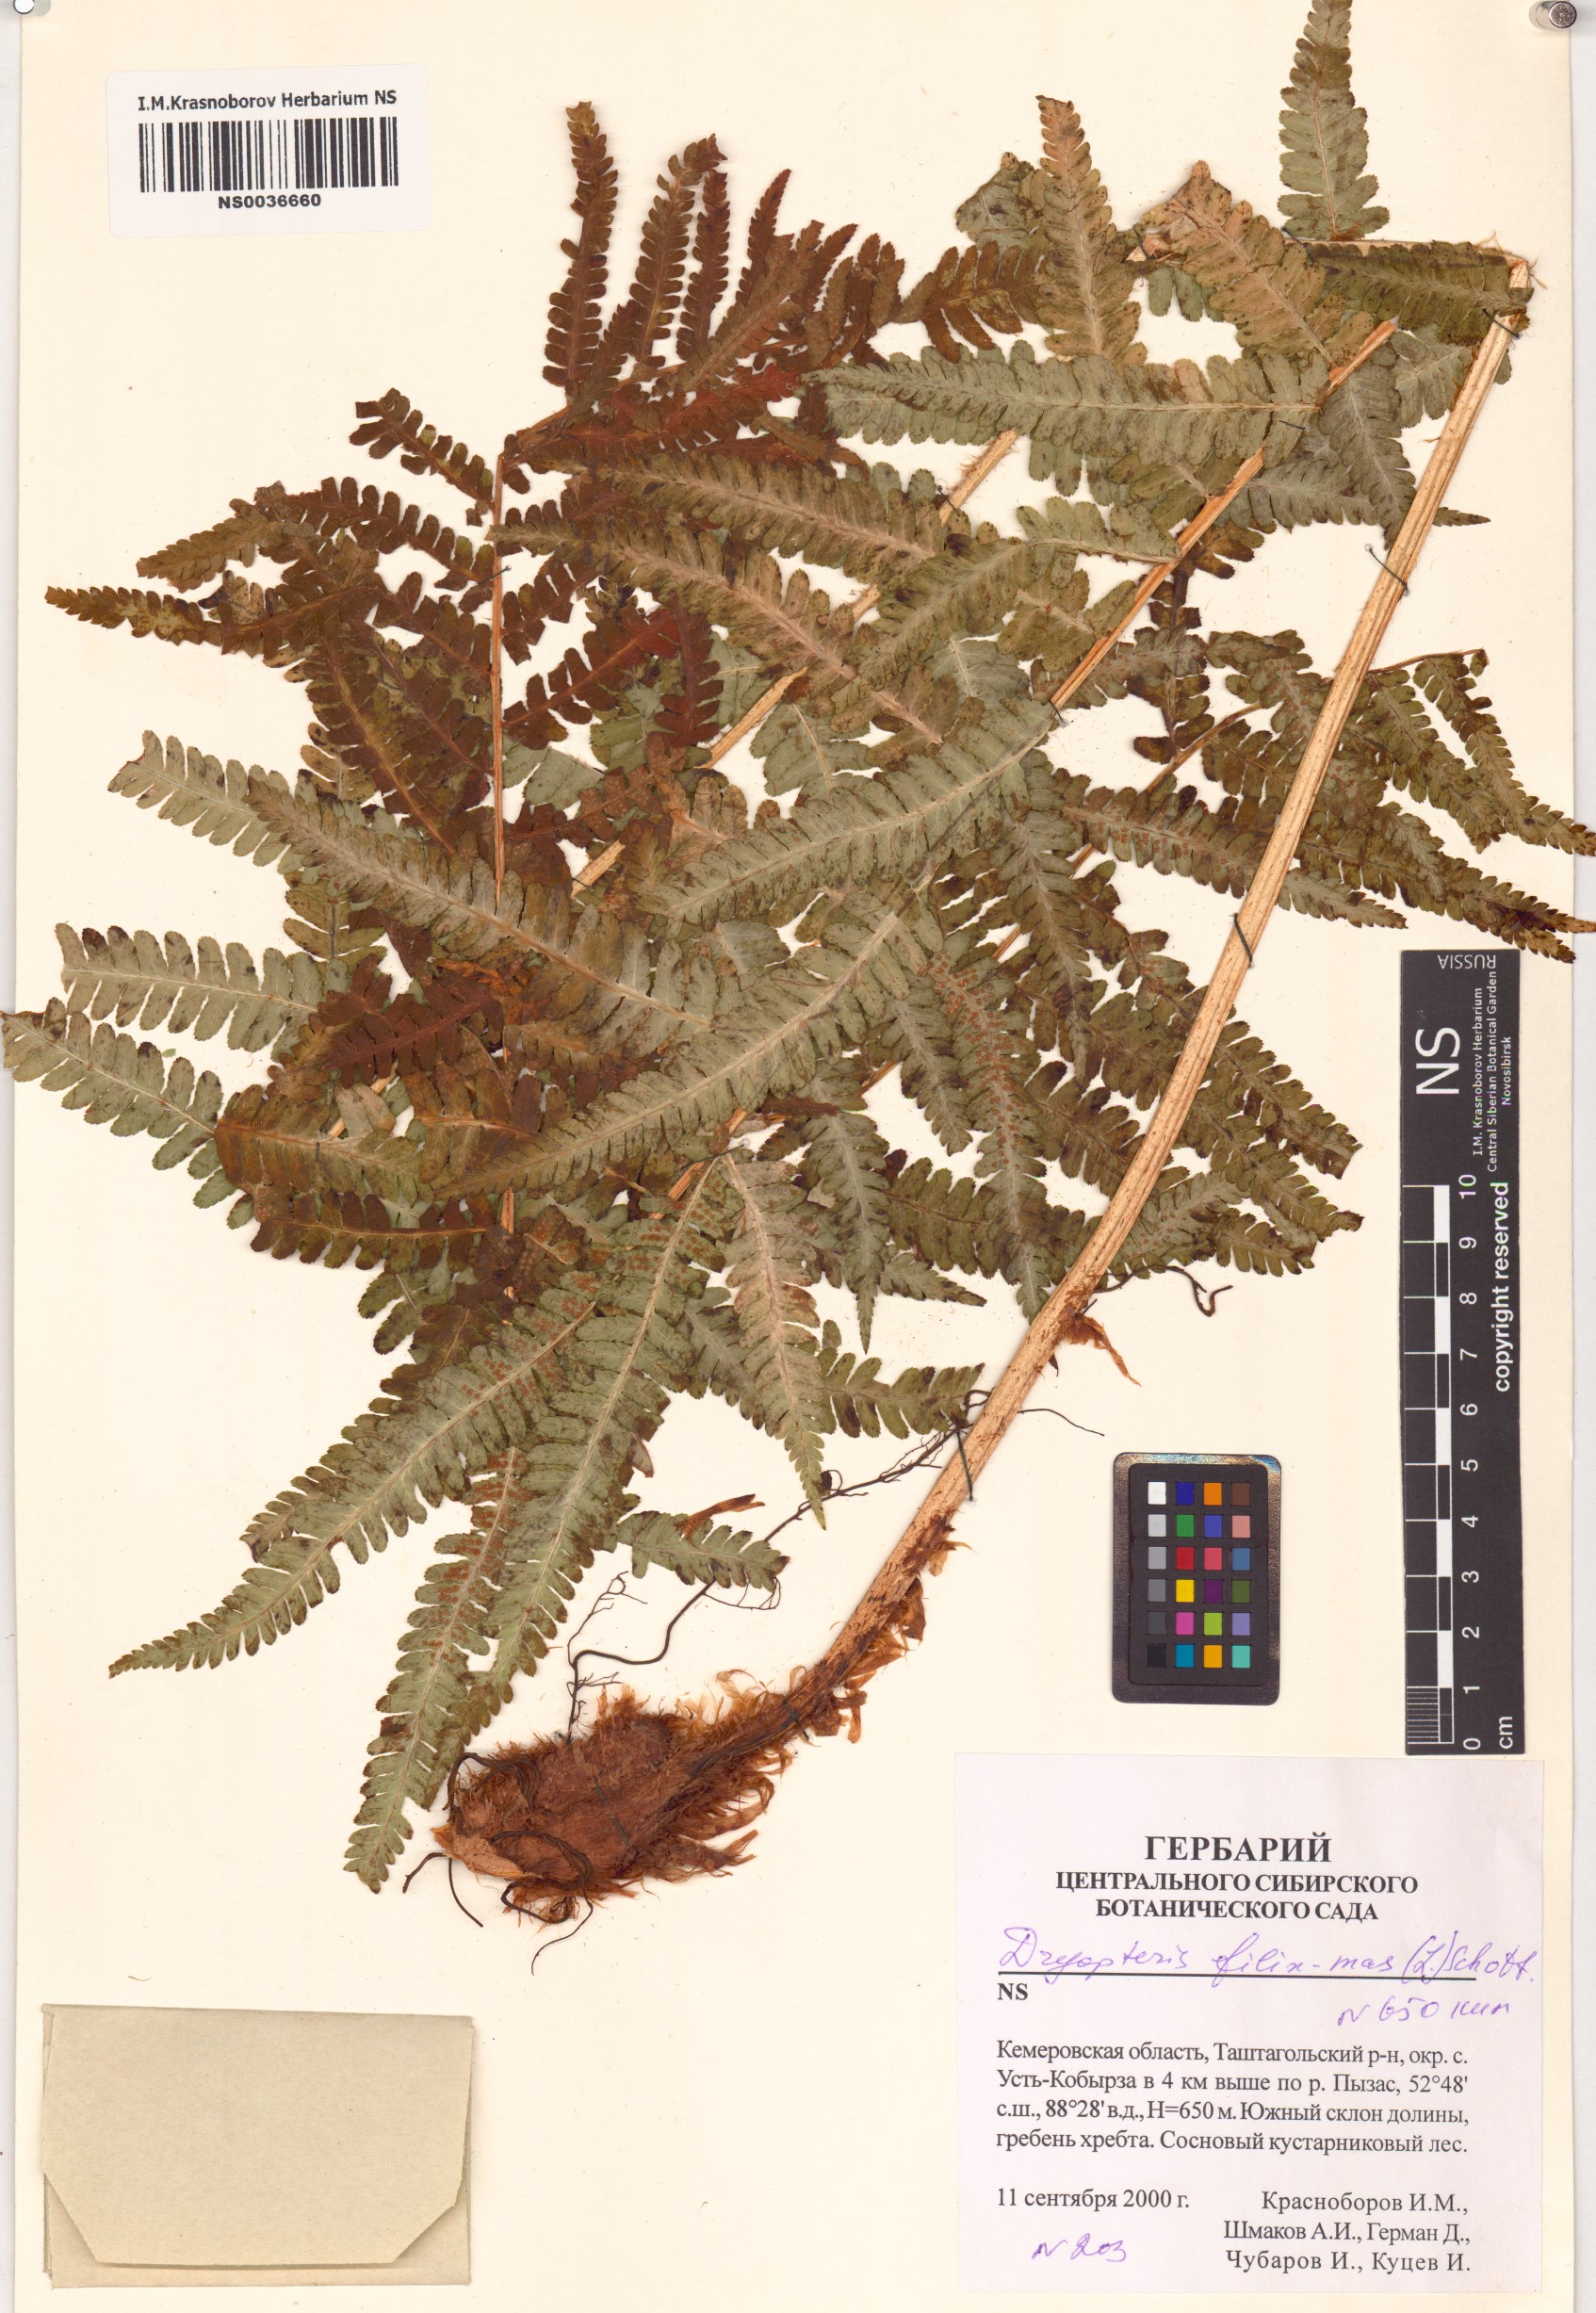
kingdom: Plantae
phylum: Tracheophyta
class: Polypodiopsida
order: Polypodiales
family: Dryopteridaceae
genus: Dryopteris
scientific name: Dryopteris filix-mas
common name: Male fern
